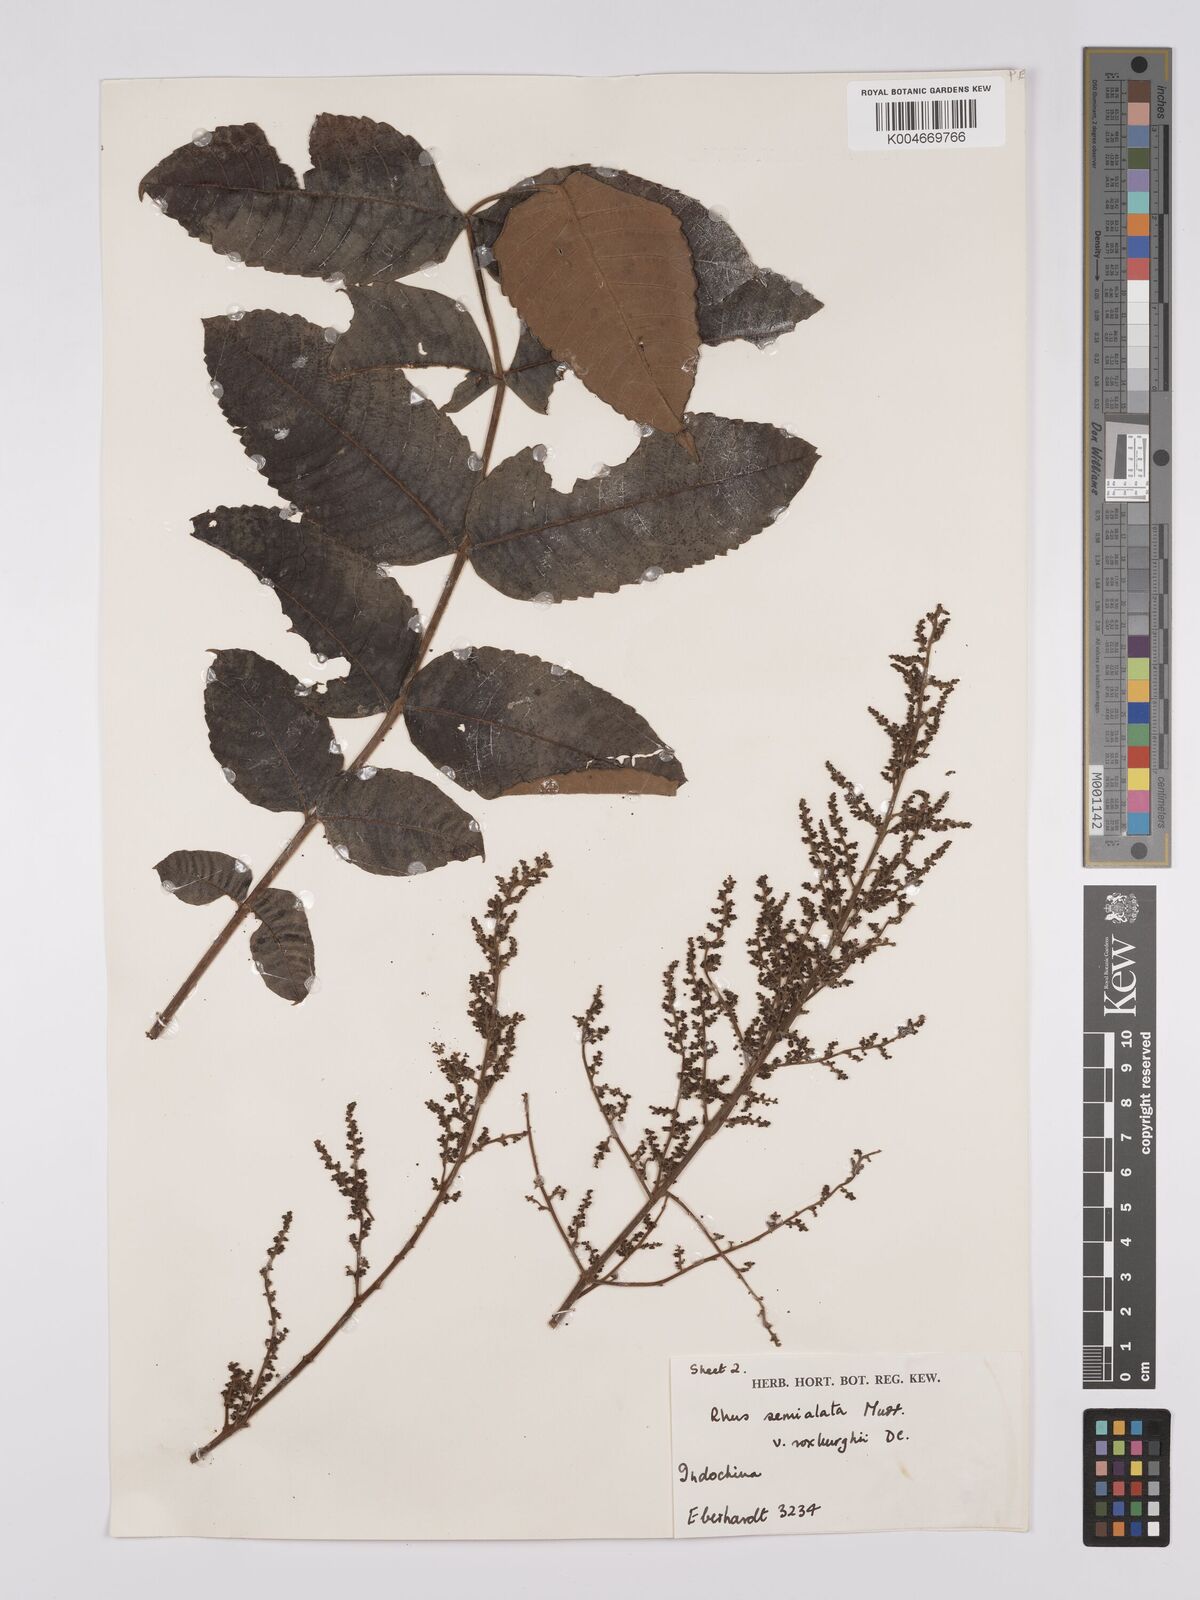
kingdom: Plantae
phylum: Tracheophyta
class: Magnoliopsida
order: Sapindales
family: Anacardiaceae
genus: Rhus
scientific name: Rhus chinensis
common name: Chinese gall
